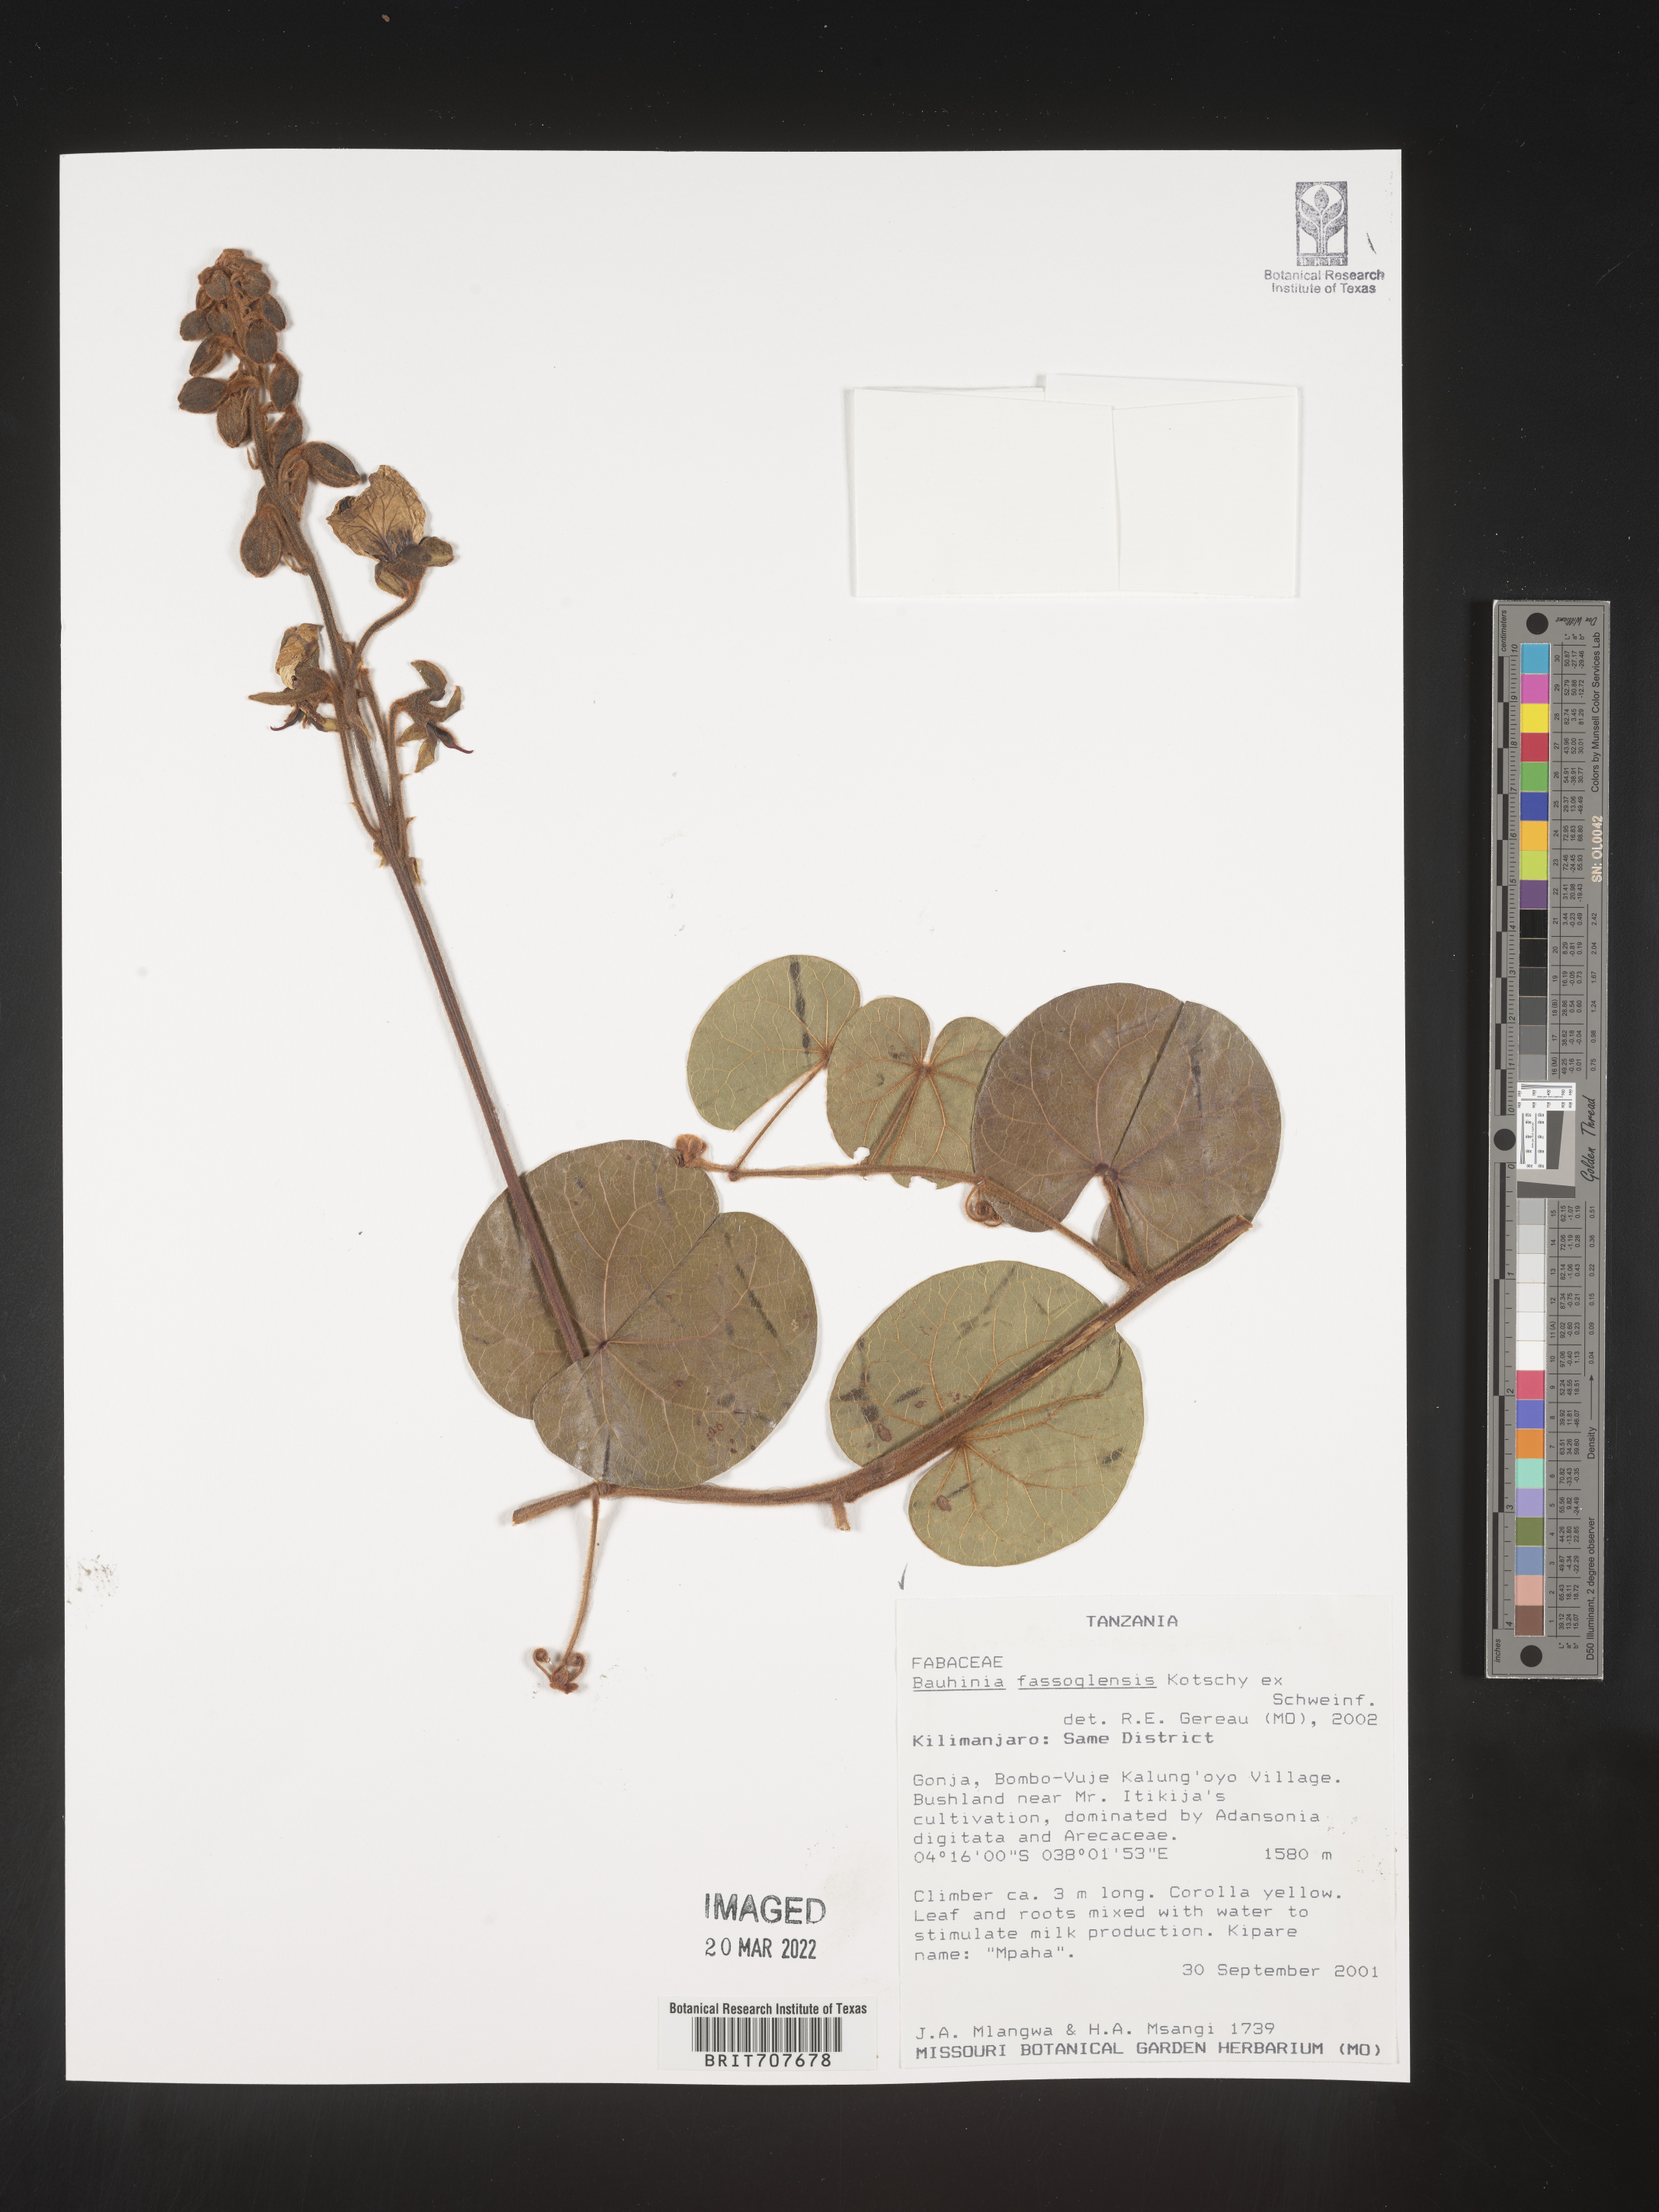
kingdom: Plantae
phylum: Tracheophyta
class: Magnoliopsida
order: Fabales
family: Fabaceae
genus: Bauhinia
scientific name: Bauhinia
